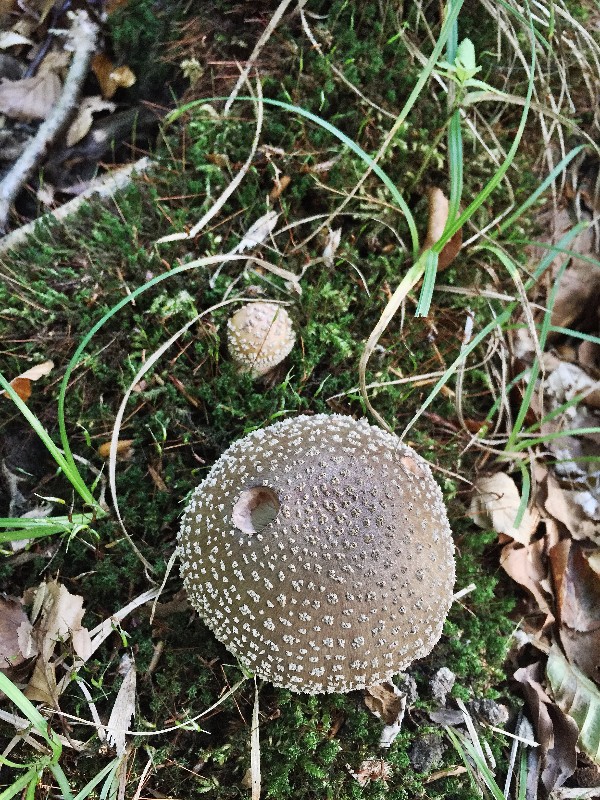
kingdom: Fungi
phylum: Basidiomycota
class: Agaricomycetes
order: Agaricales
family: Amanitaceae
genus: Amanita
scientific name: Amanita pantherina
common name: panter-fluesvamp
